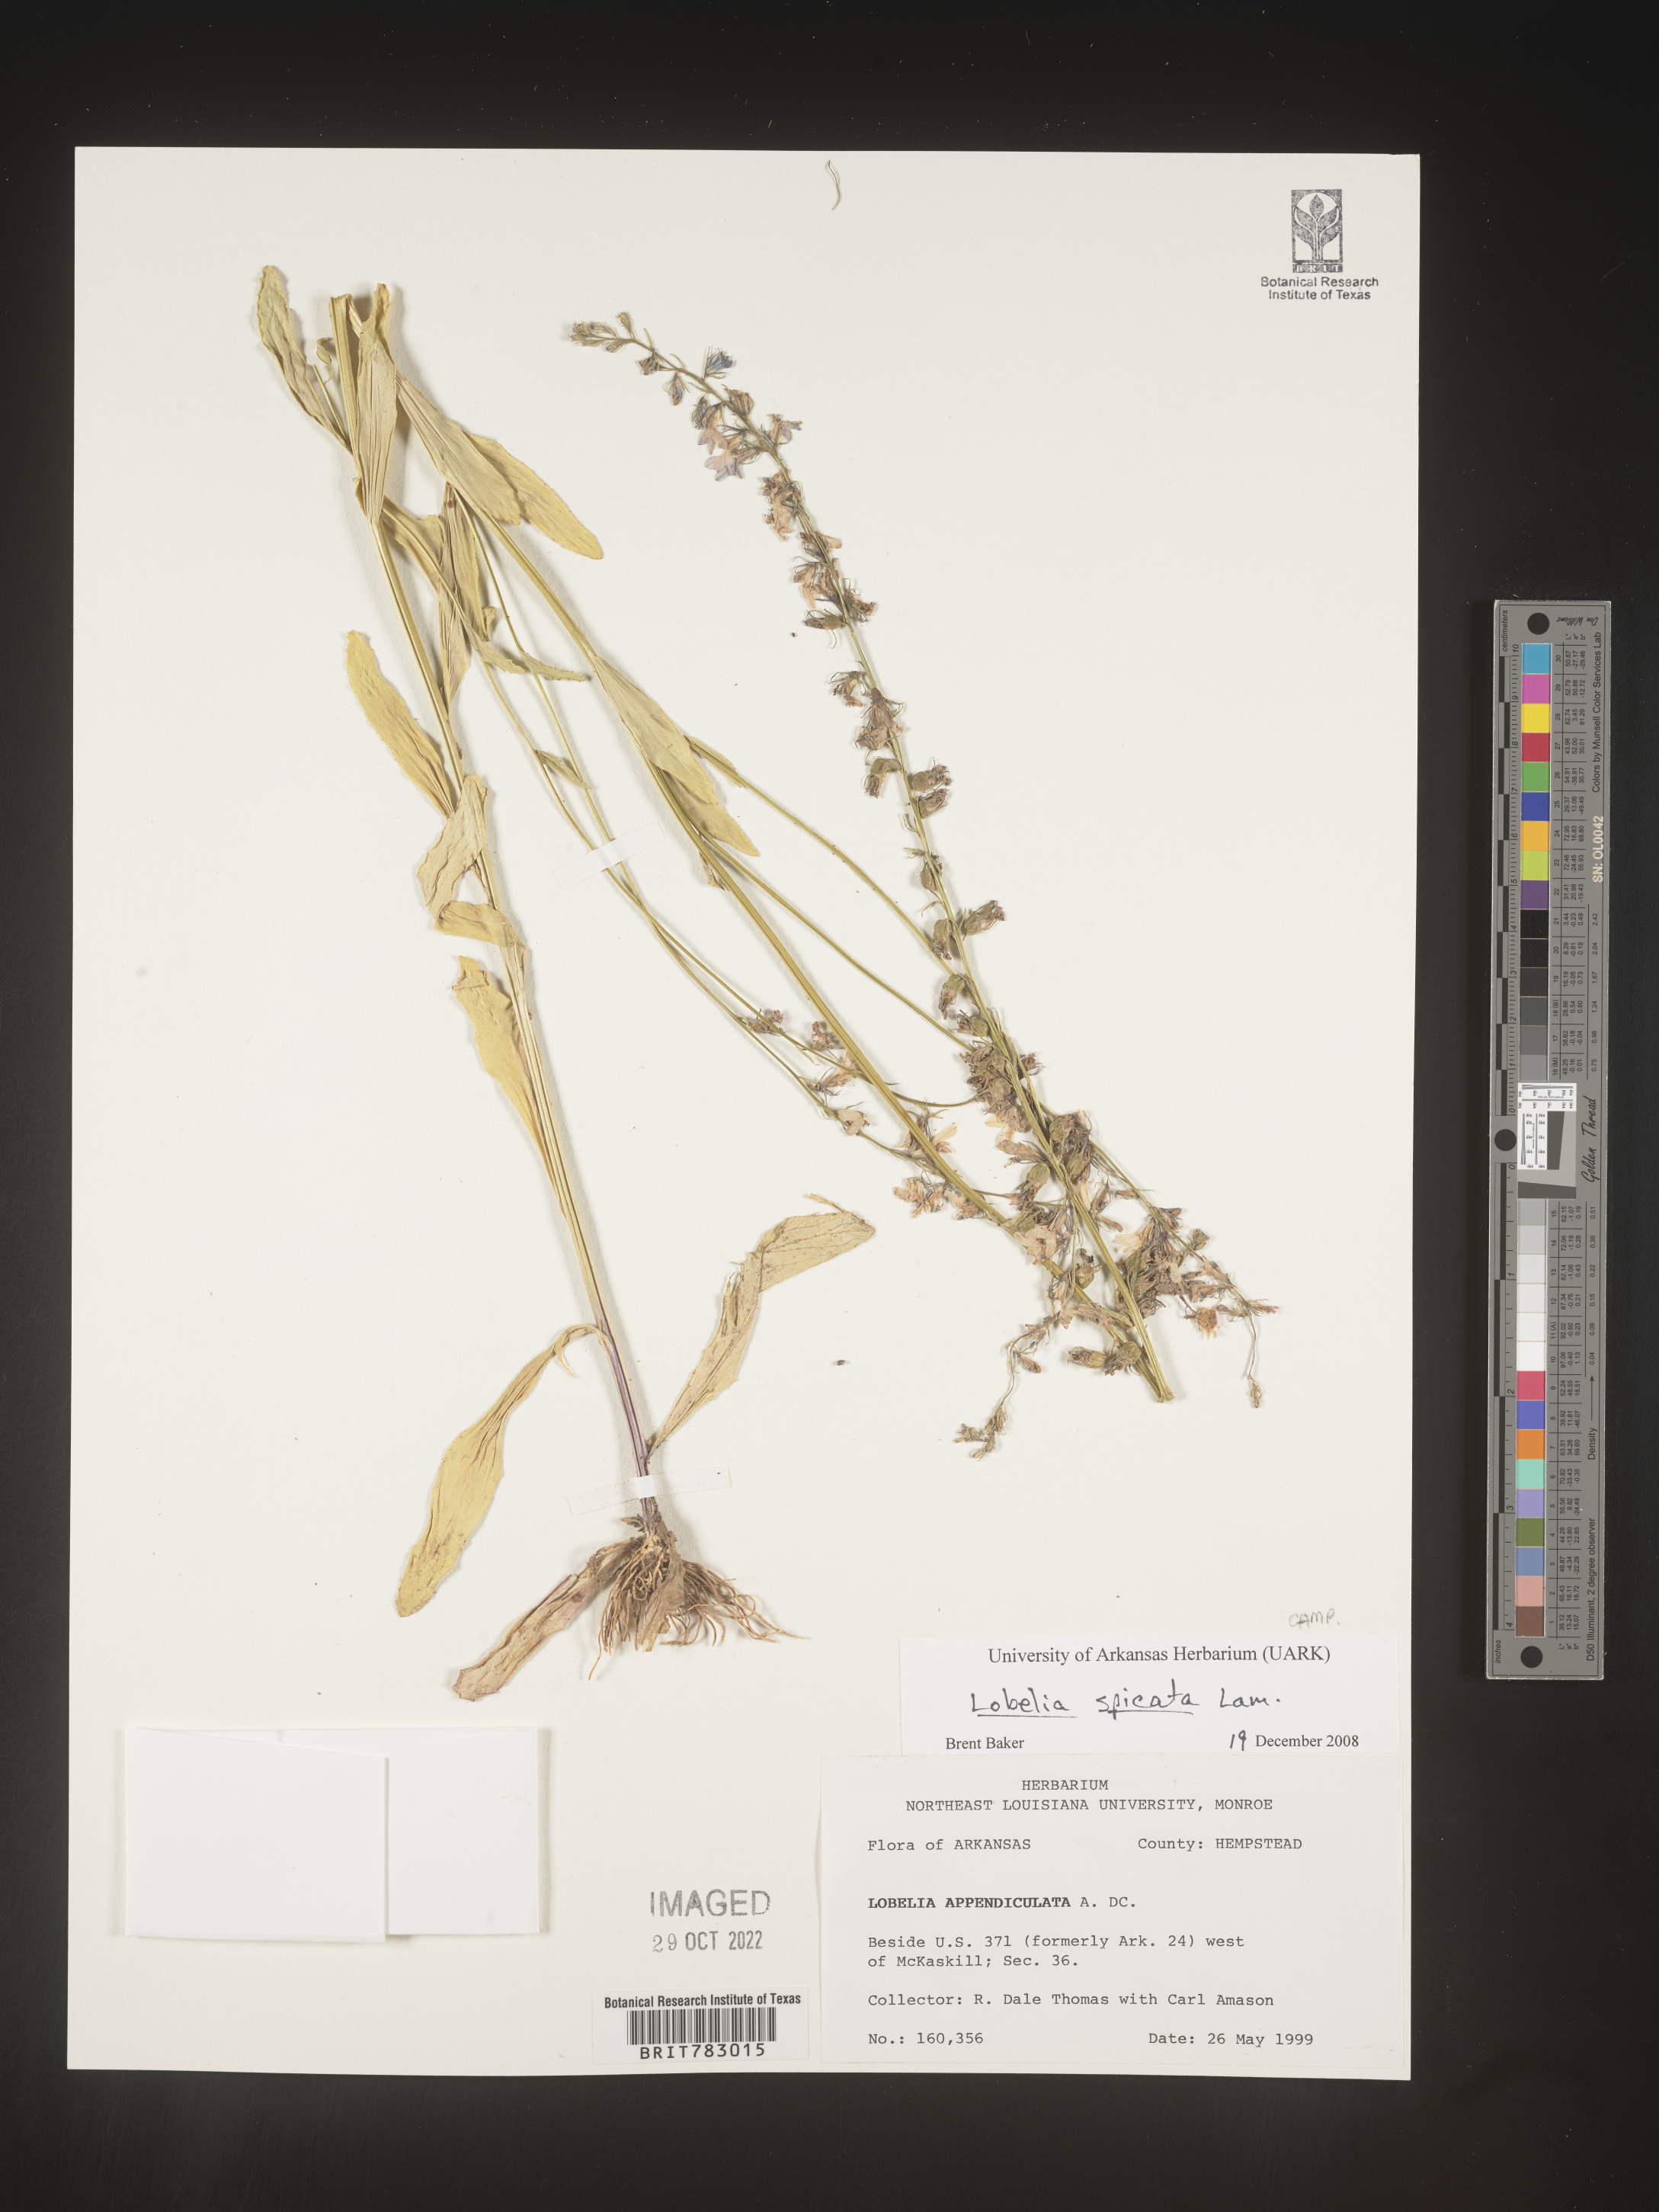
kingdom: Plantae
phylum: Tracheophyta
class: Magnoliopsida
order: Asterales
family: Campanulaceae
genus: Lobelia
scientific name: Lobelia spicata
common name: Pale-spike lobelia
